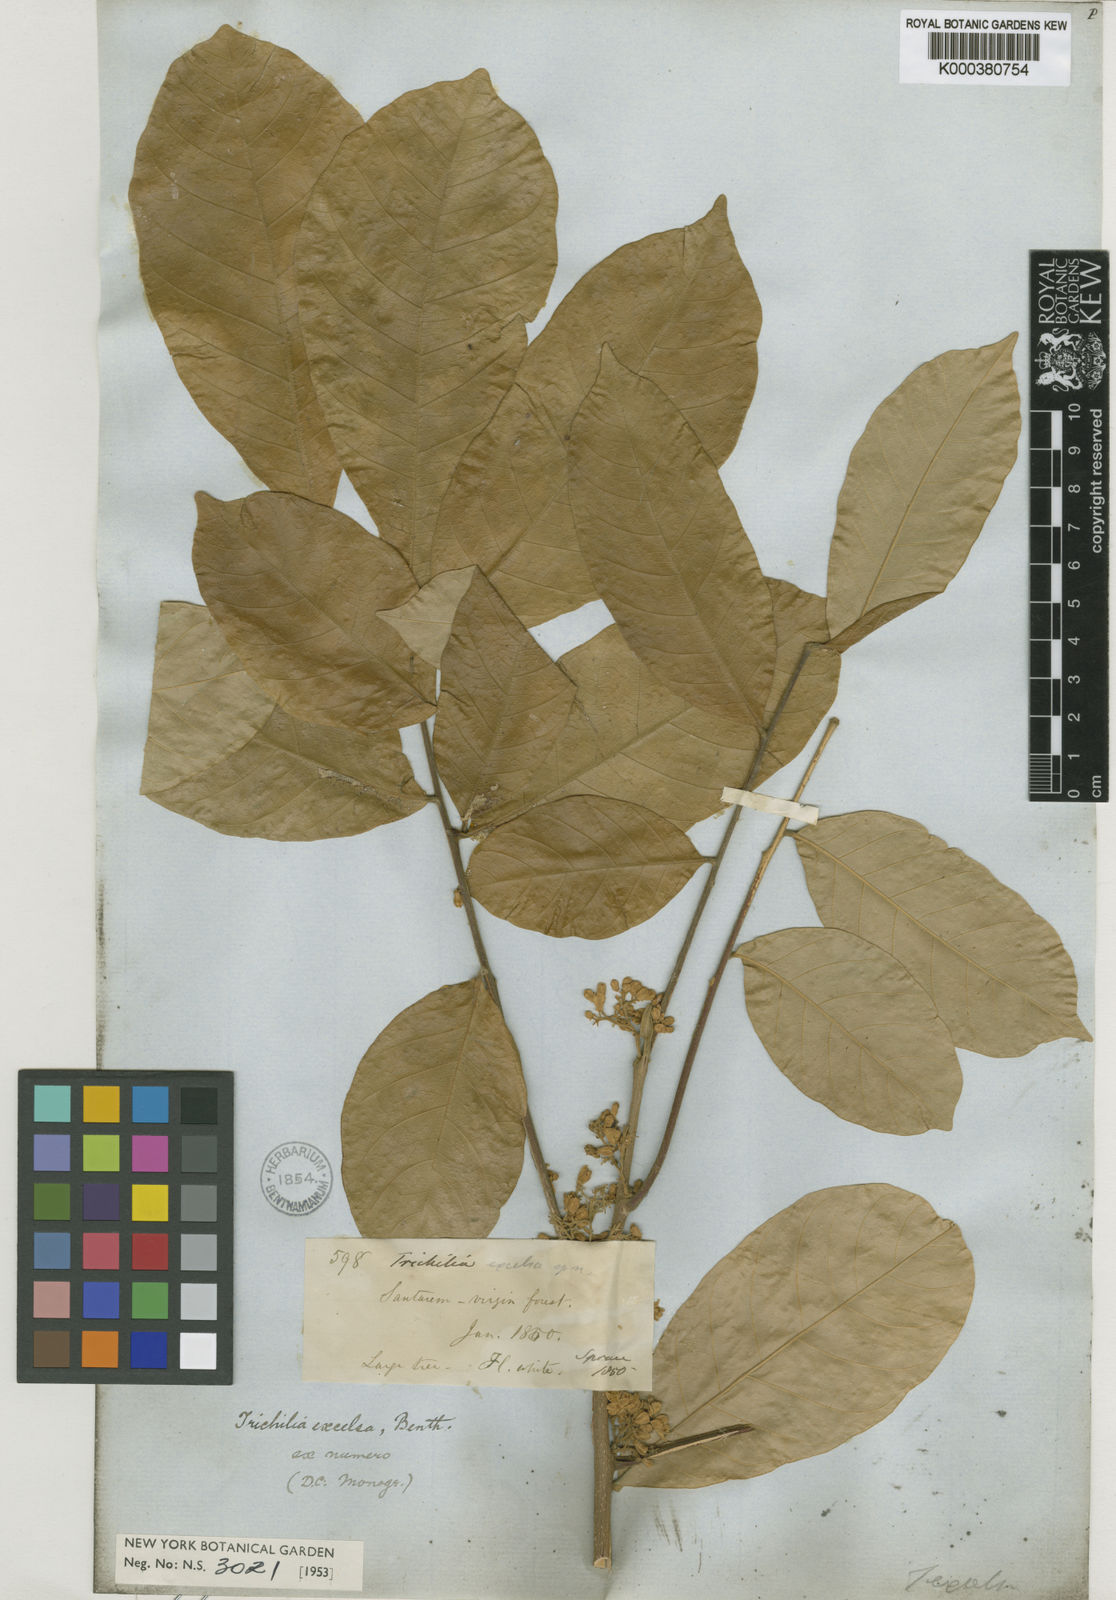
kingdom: Plantae
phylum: Tracheophyta
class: Magnoliopsida
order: Sapindales
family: Meliaceae
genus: Trichilia
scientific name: Trichilia pallida
